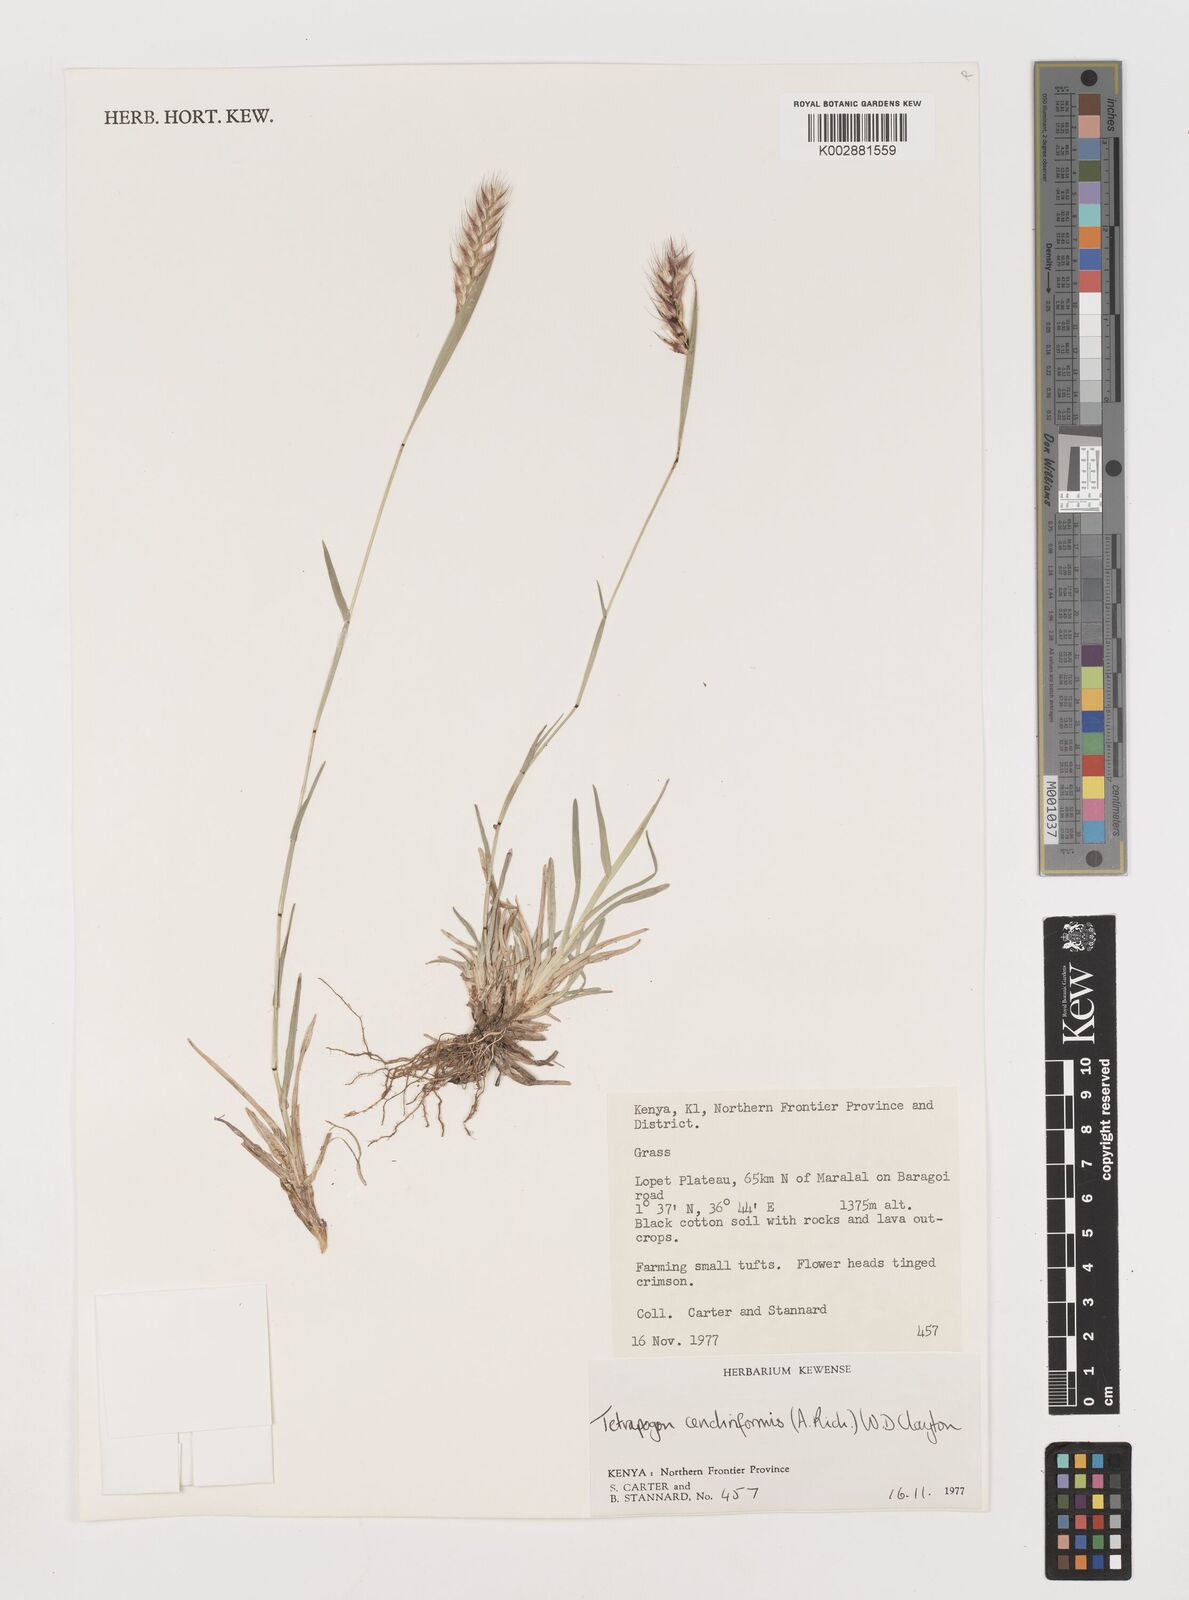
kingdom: Plantae
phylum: Tracheophyta
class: Liliopsida
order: Poales
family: Poaceae
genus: Tetrapogon
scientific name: Tetrapogon cenchriformis
